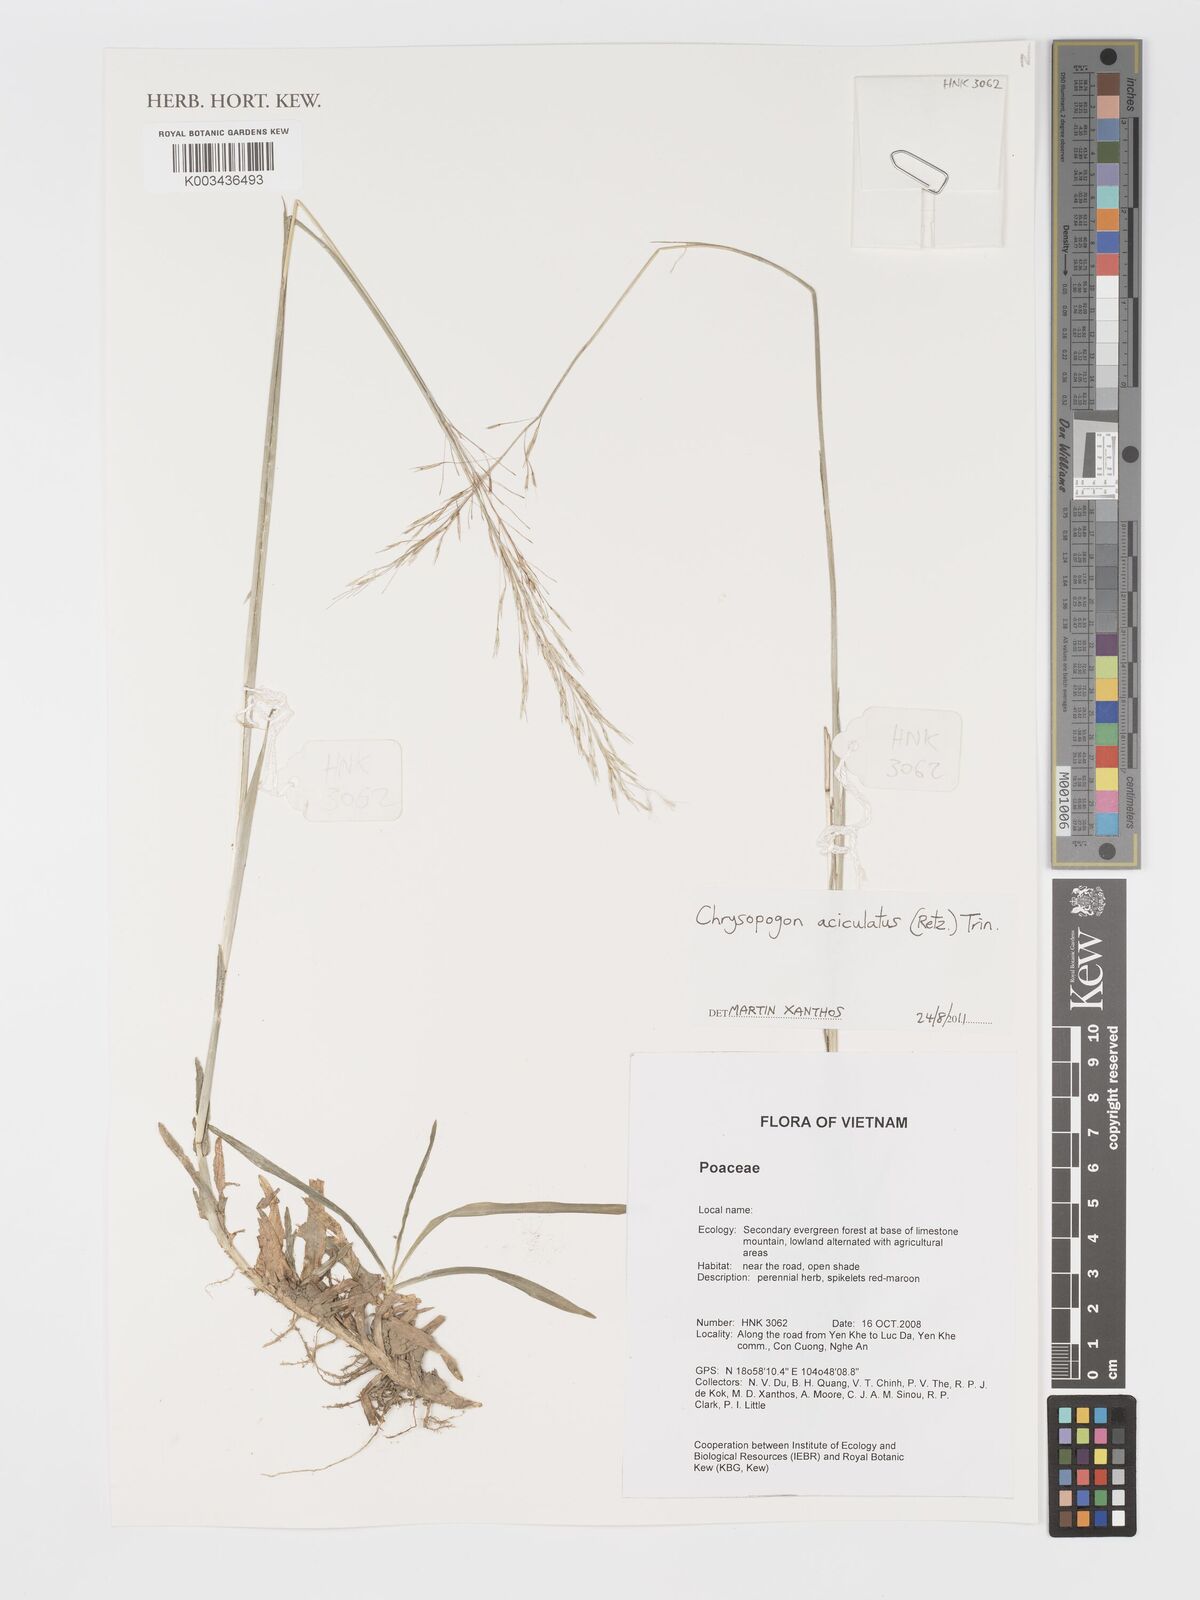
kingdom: Plantae
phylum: Tracheophyta
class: Liliopsida
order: Poales
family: Poaceae
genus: Chrysopogon
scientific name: Chrysopogon aciculatus
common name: Pilipiliula
